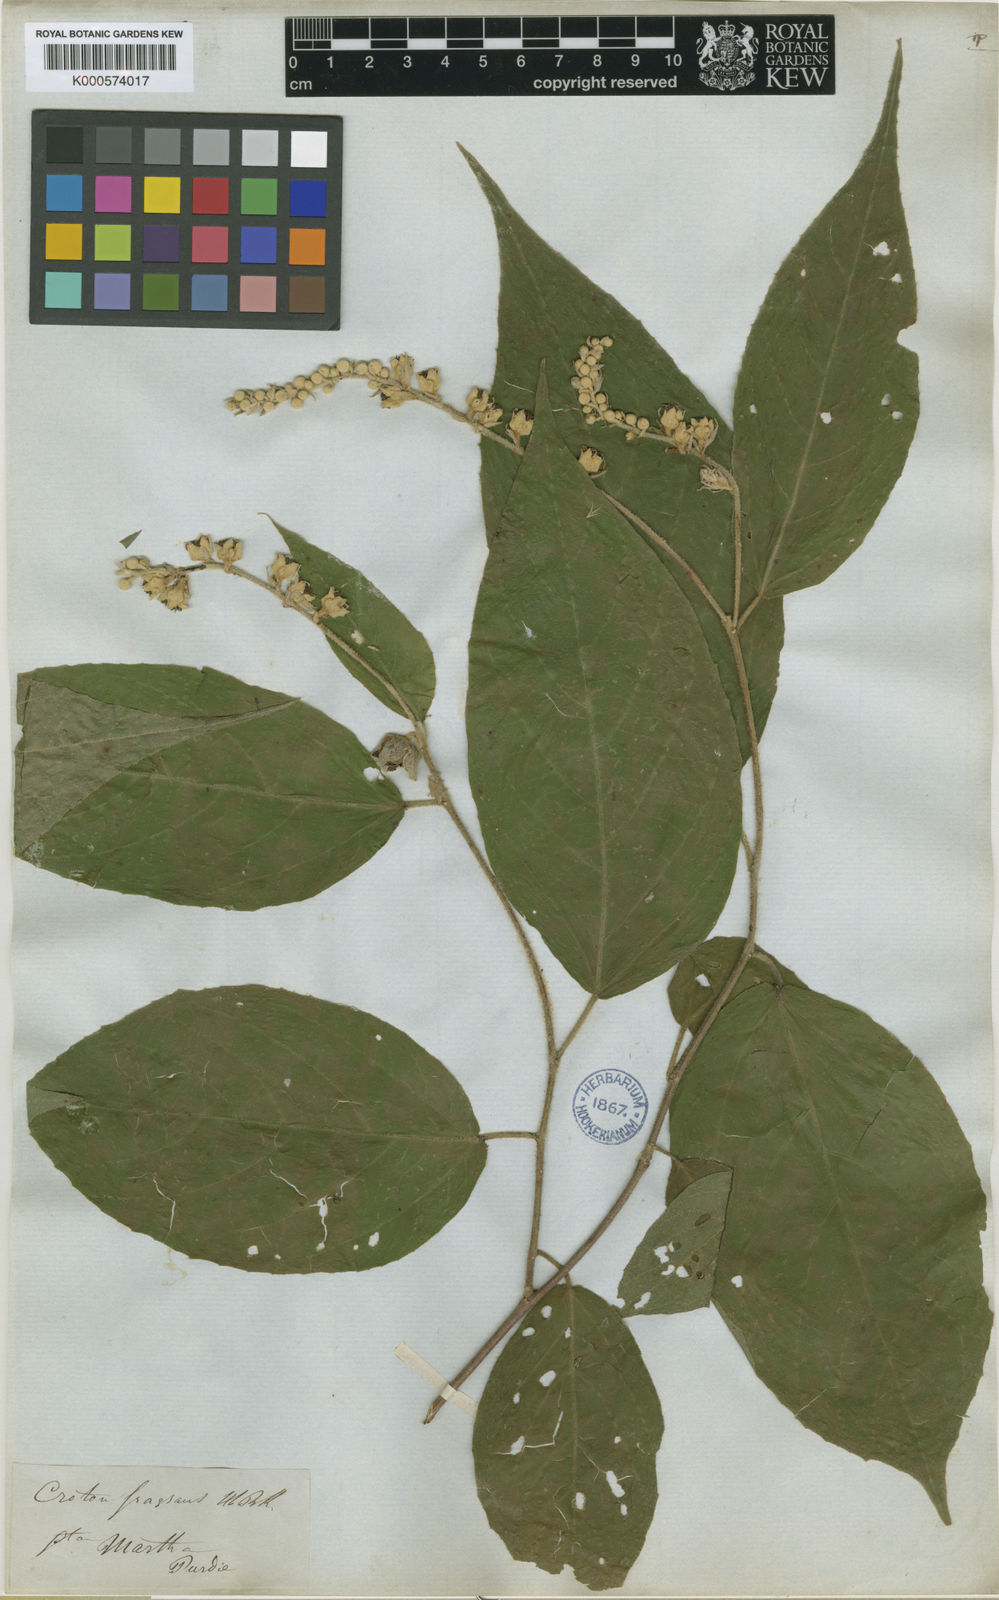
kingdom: Plantae
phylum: Tracheophyta
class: Magnoliopsida
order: Malpighiales
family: Euphorbiaceae
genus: Croton
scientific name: Croton fragrans
